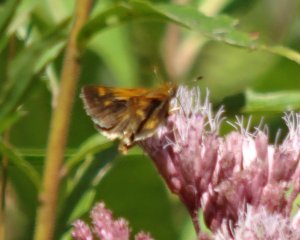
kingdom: Animalia
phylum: Arthropoda
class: Insecta
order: Lepidoptera
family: Hesperiidae
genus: Polites
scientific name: Polites coras
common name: Peck's Skipper
